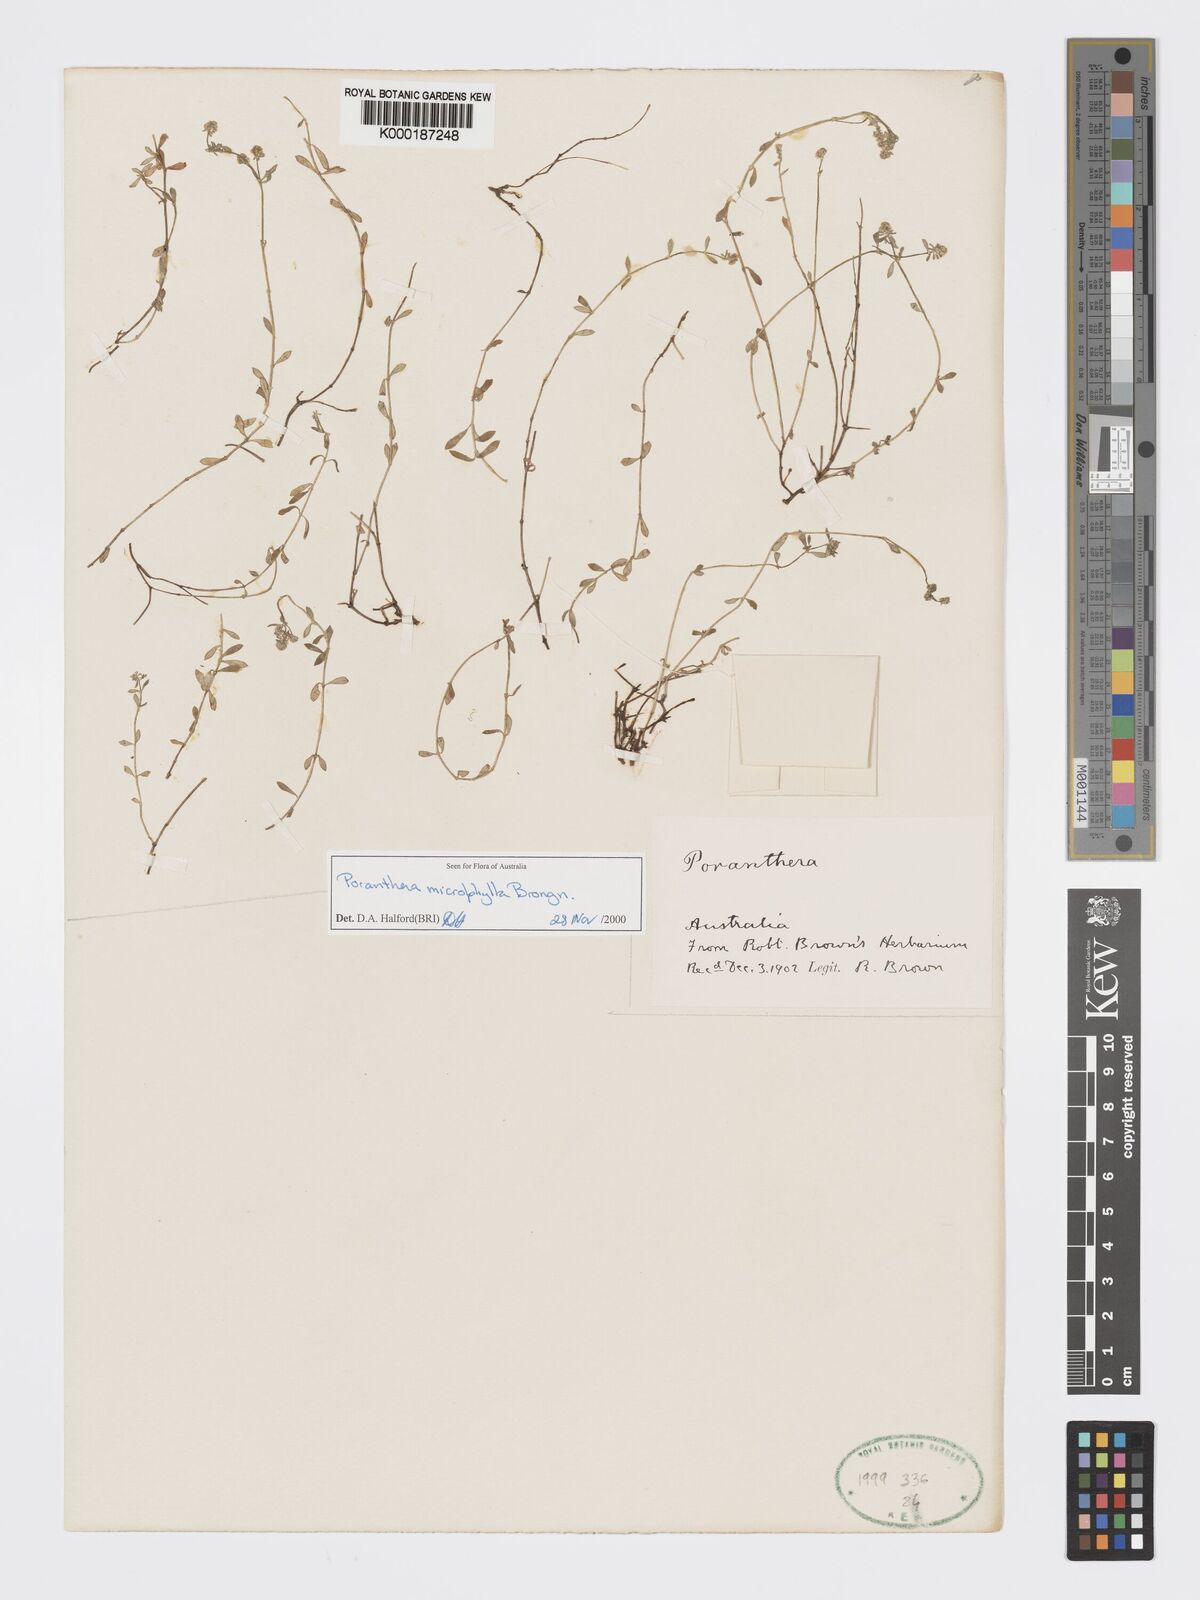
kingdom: Plantae
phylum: Tracheophyta
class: Magnoliopsida
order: Malpighiales
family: Phyllanthaceae
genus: Poranthera
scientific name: Poranthera microphylla
